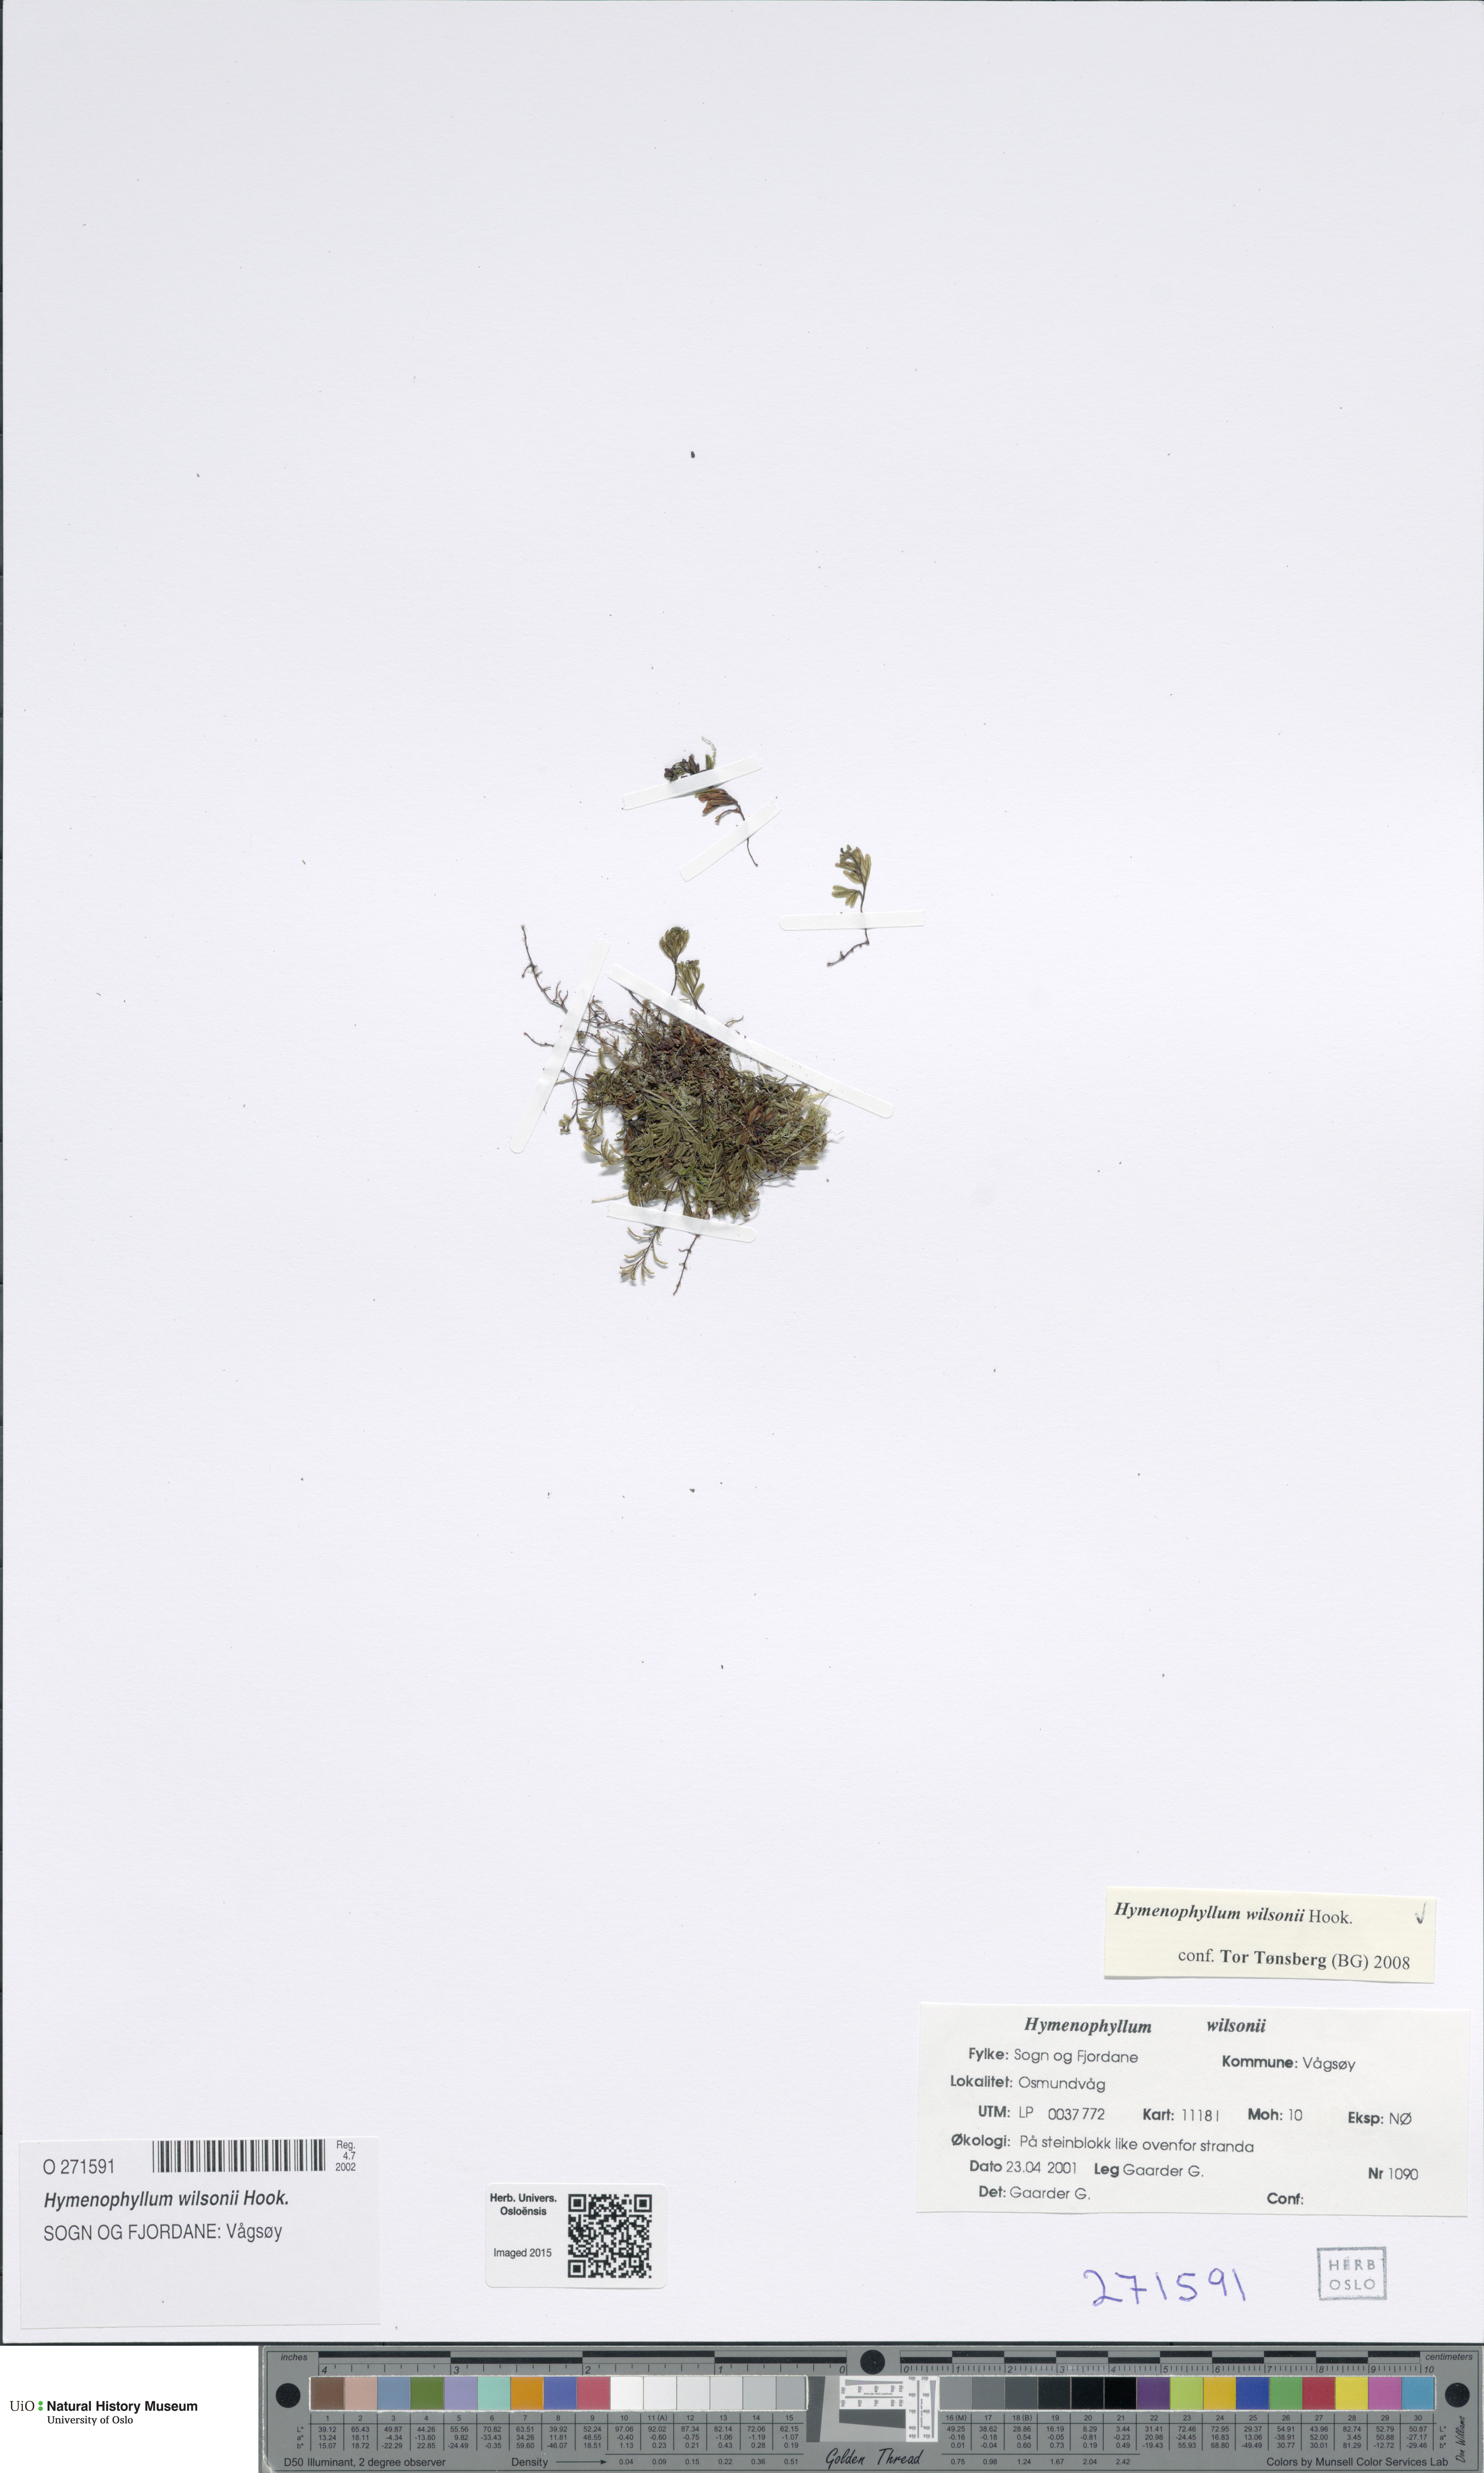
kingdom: Plantae
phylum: Tracheophyta
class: Polypodiopsida
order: Hymenophyllales
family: Hymenophyllaceae
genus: Hymenophyllum
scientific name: Hymenophyllum peltatum
